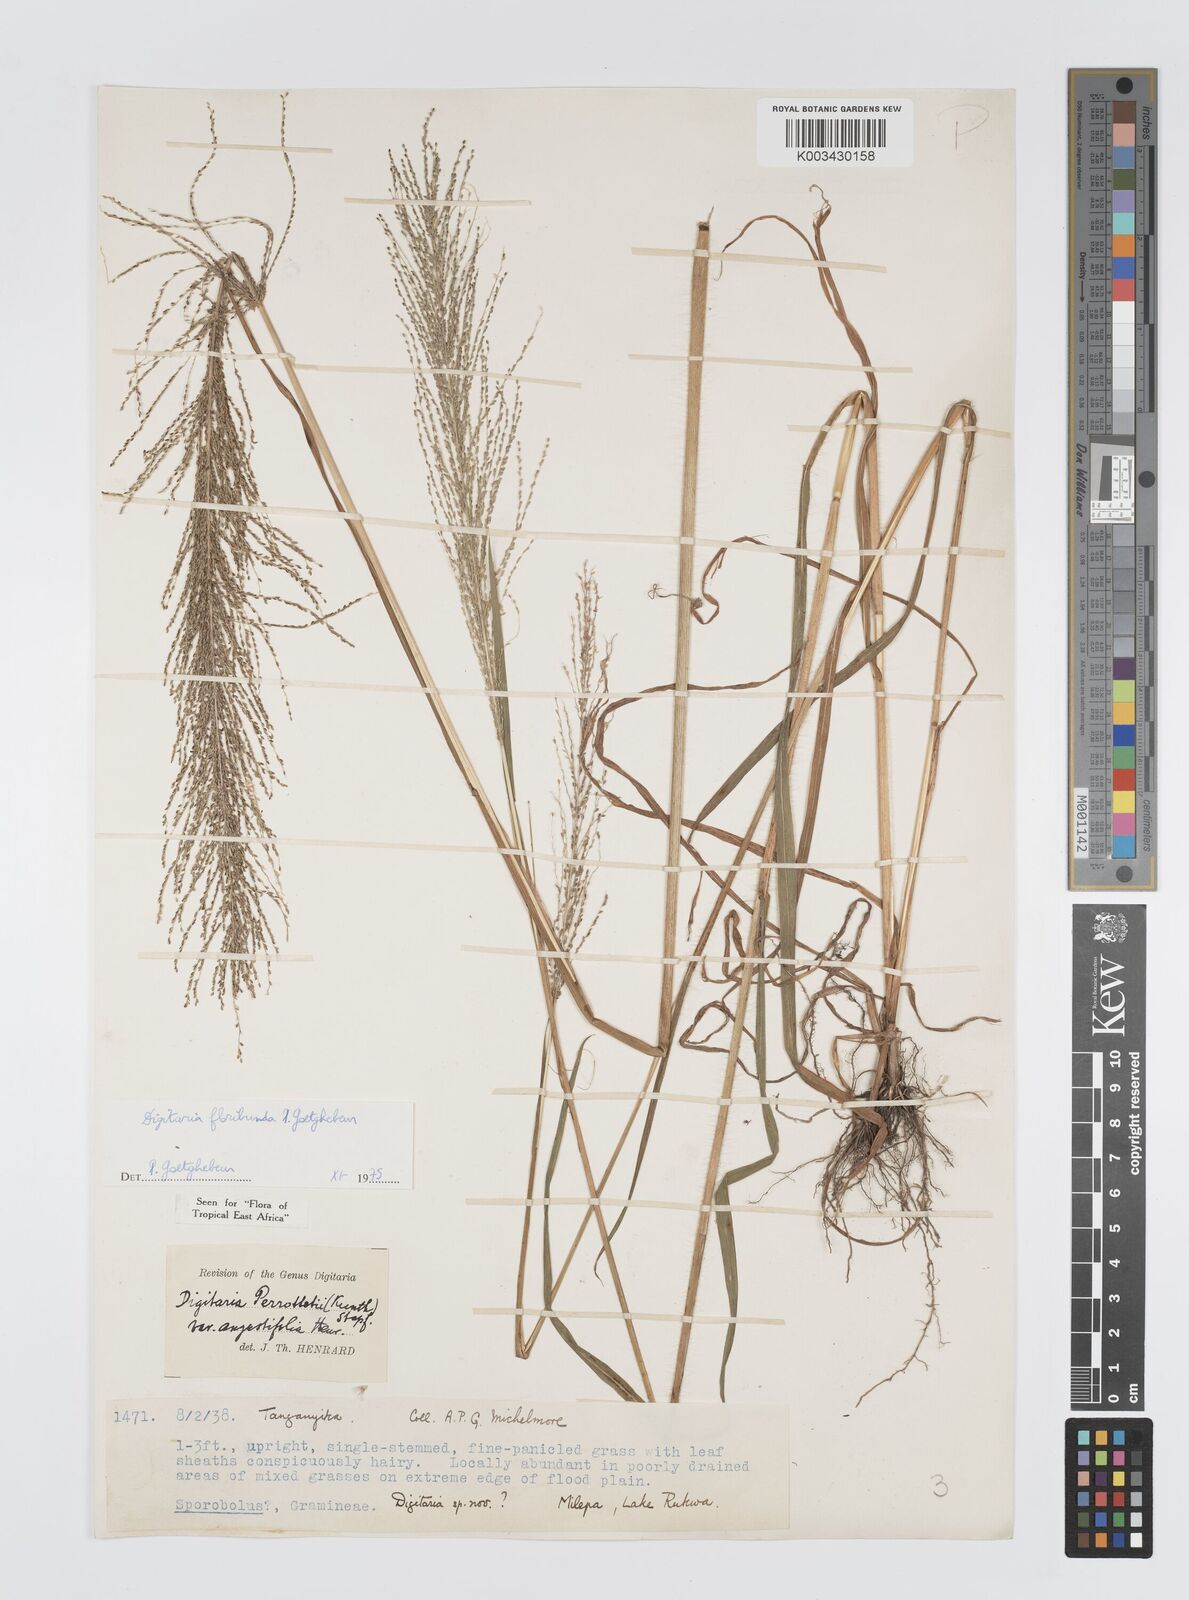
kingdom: Plantae
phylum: Tracheophyta
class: Liliopsida
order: Poales
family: Poaceae
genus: Digitaria
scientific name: Digitaria perrottetii
